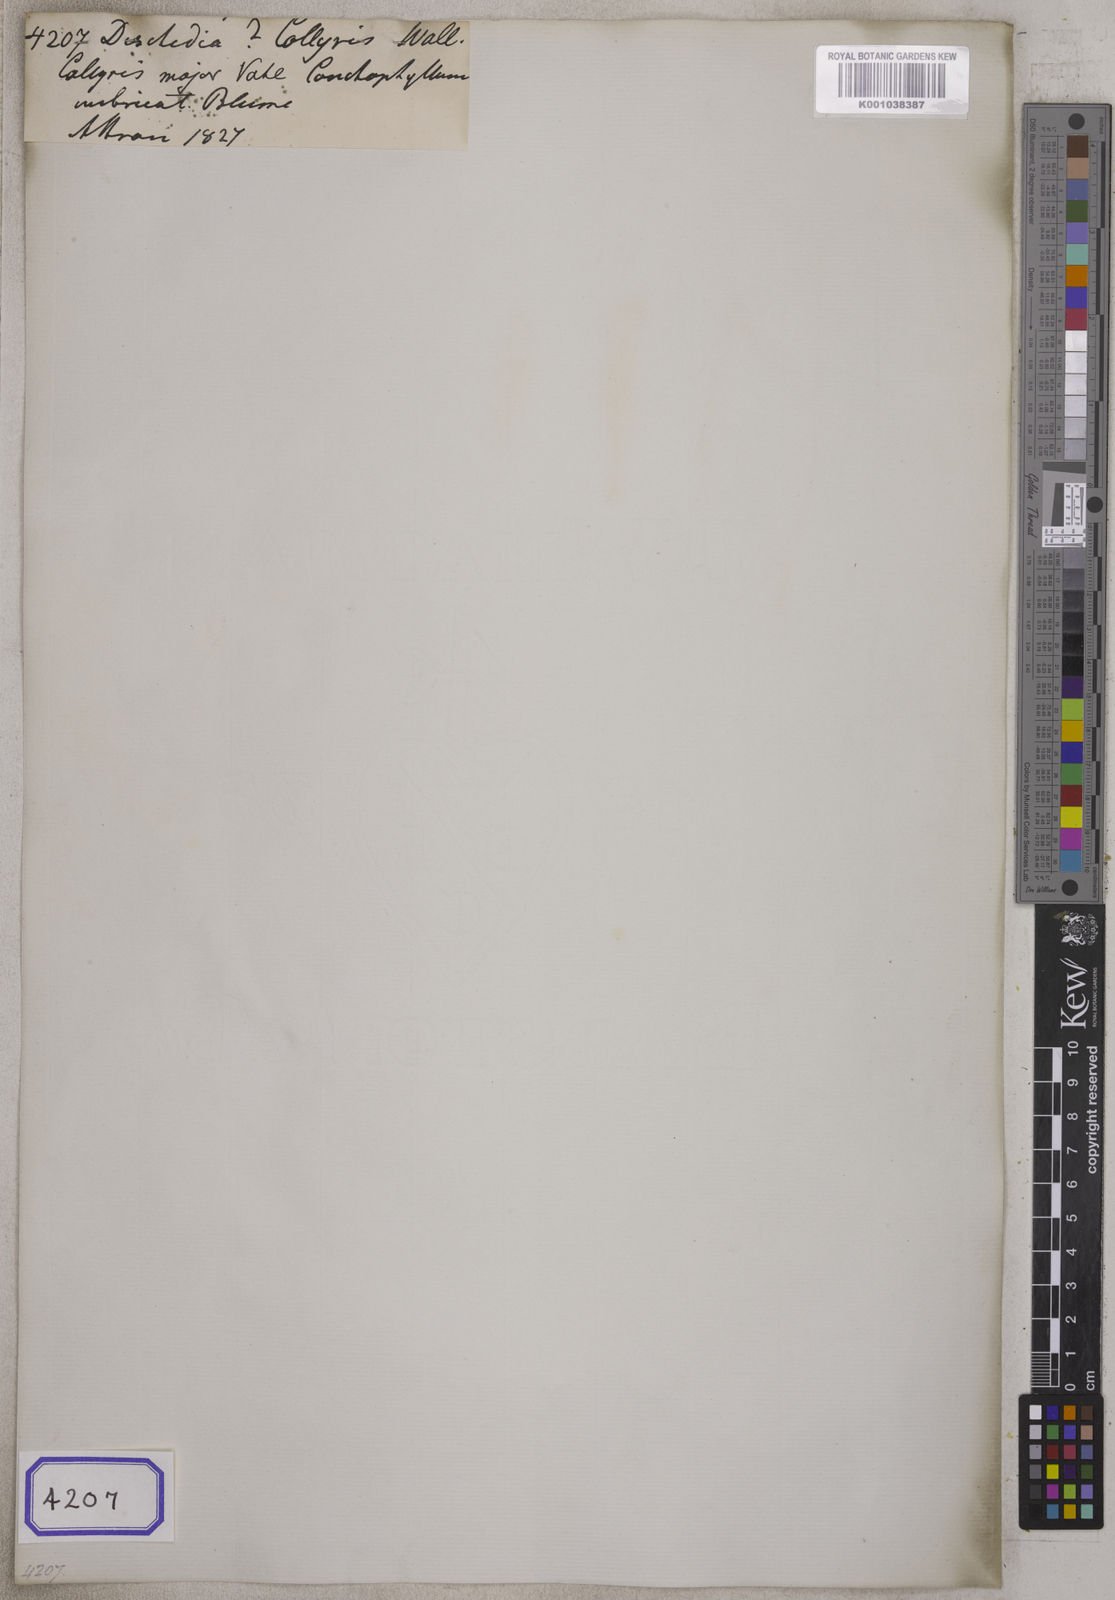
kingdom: Plantae
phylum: Tracheophyta
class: Magnoliopsida
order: Gentianales
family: Apocynaceae
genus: Dischidia
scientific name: Dischidia albiflora
